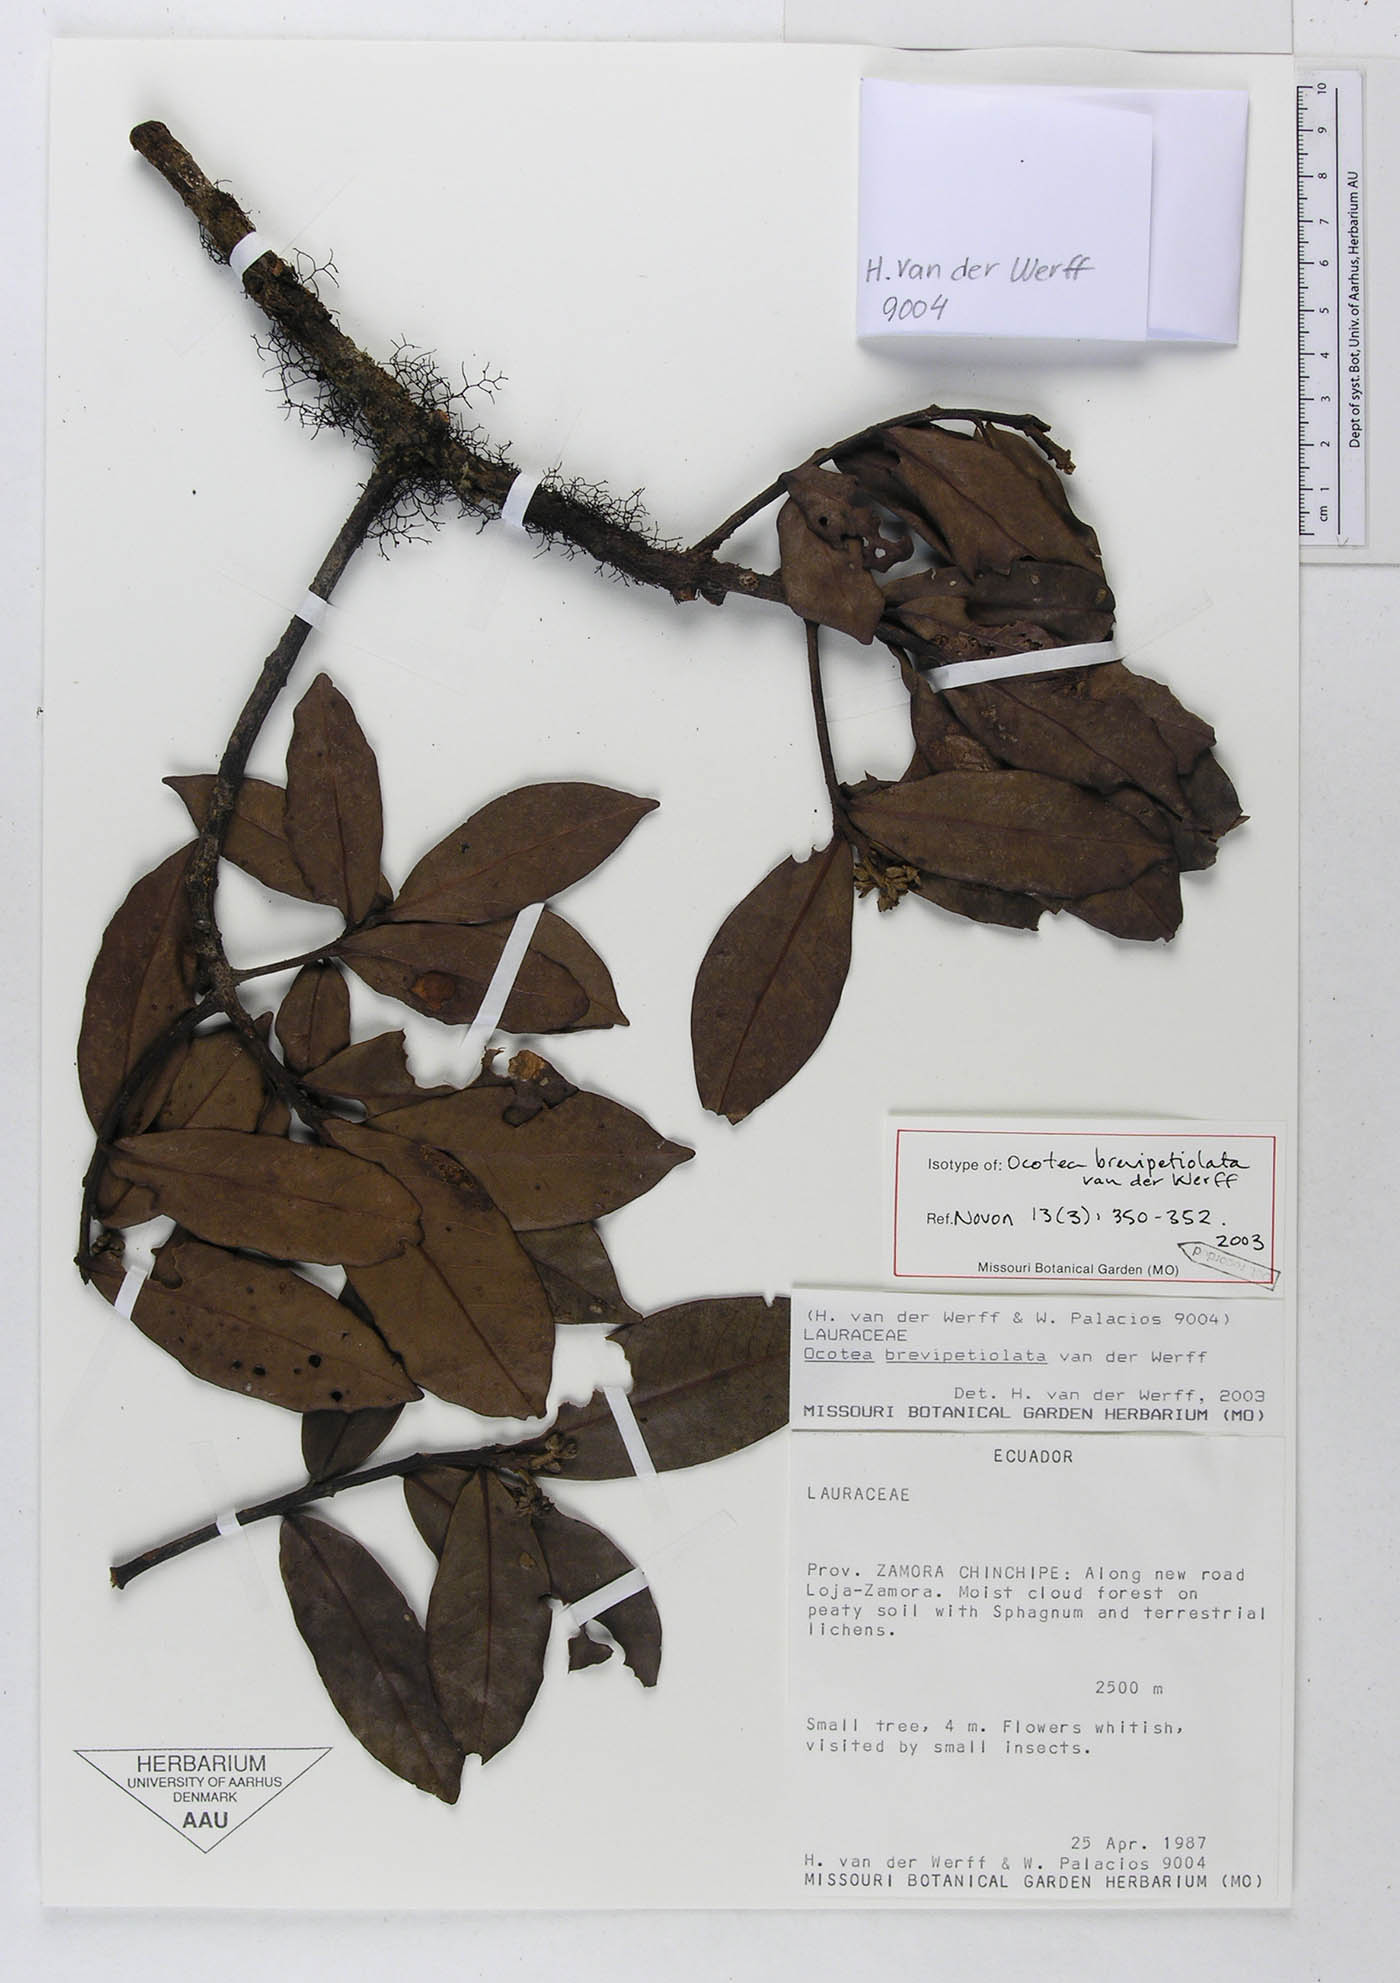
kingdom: Plantae
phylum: Tracheophyta
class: Magnoliopsida
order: Laurales
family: Lauraceae
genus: Ocotea
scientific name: Ocotea brevipetiolata
